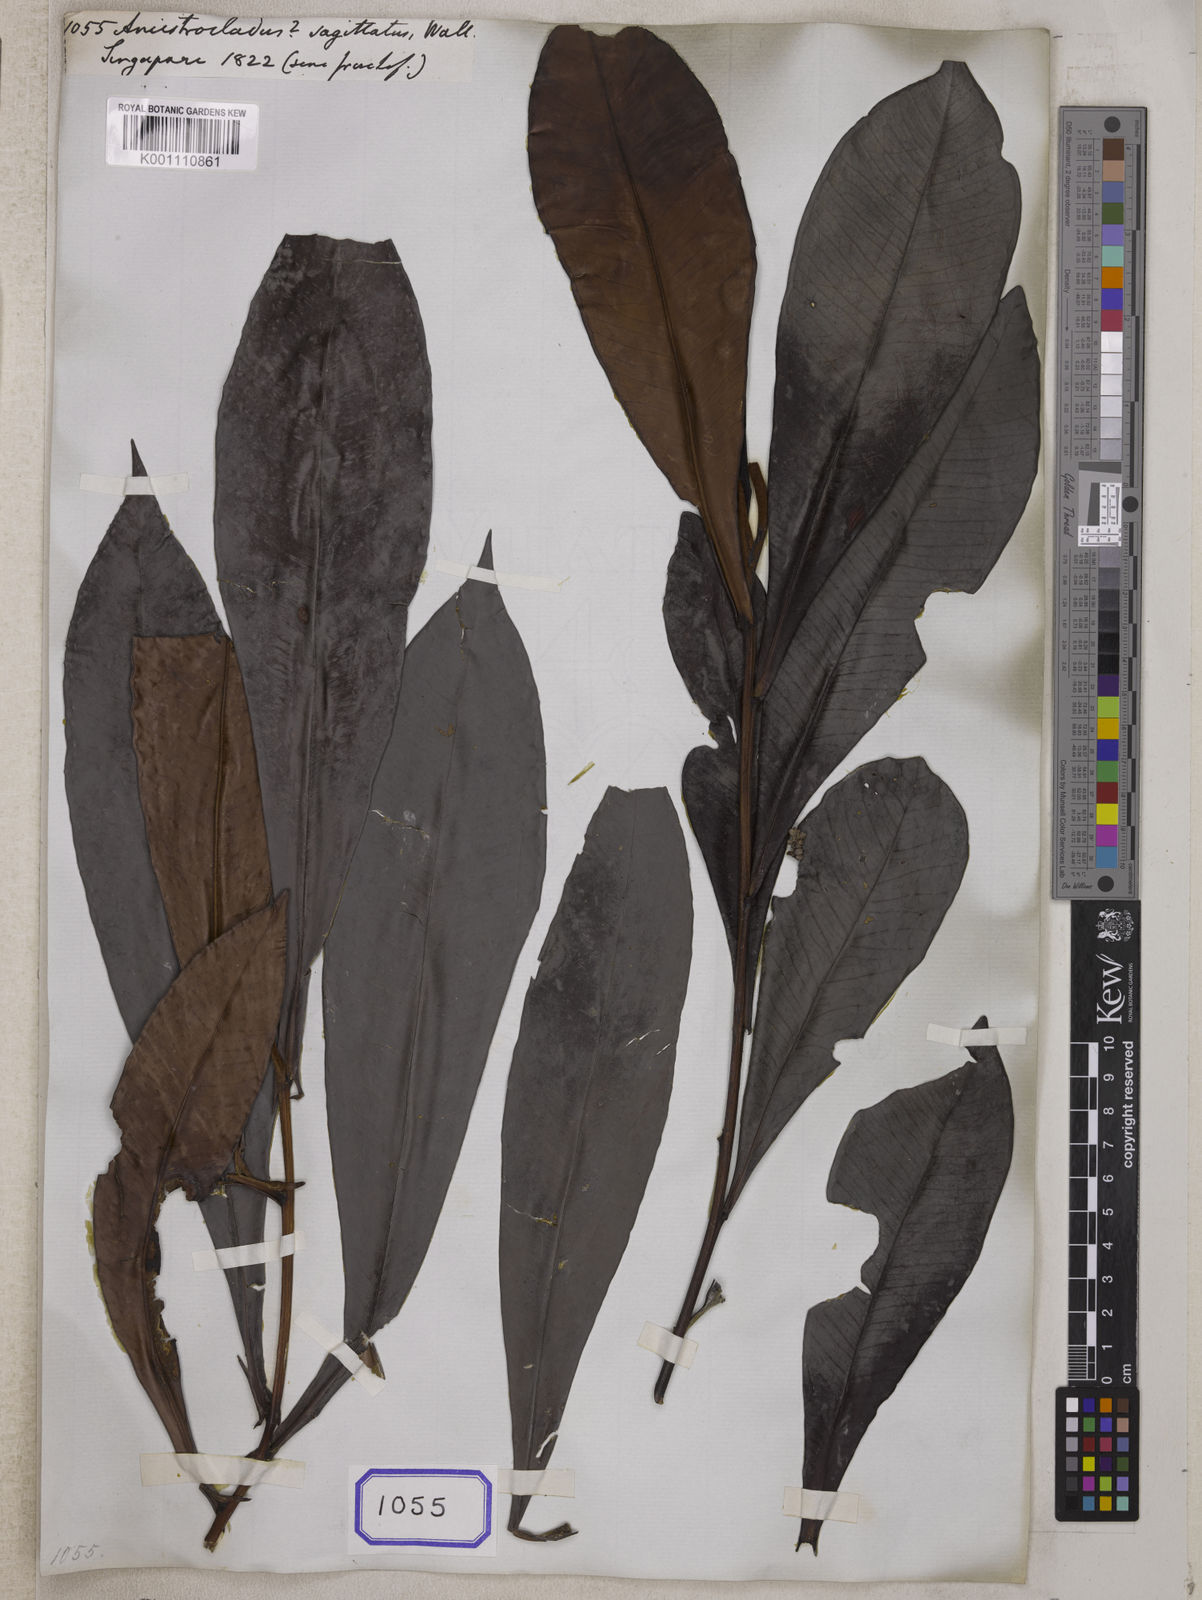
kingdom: Plantae
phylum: Tracheophyta
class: Magnoliopsida
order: Caryophyllales
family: Ancistrocladaceae
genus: Ancistrocladus
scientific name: Ancistrocladus
